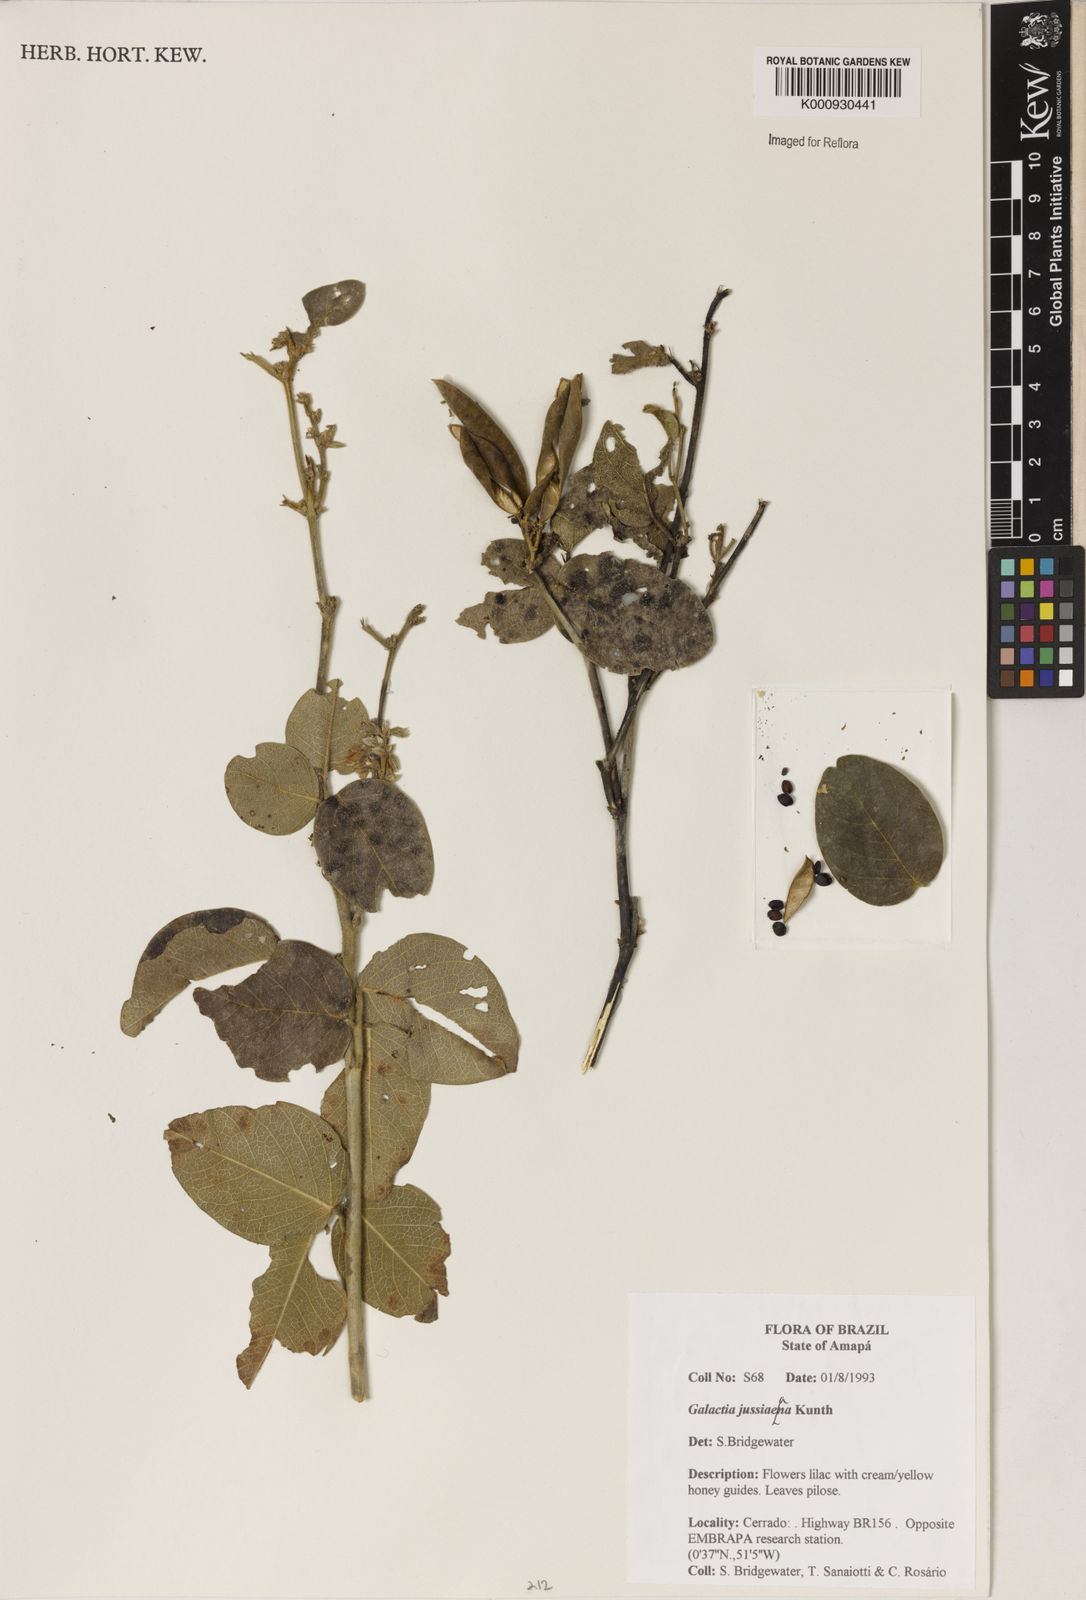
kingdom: Plantae
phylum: Tracheophyta
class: Magnoliopsida
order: Fabales
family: Fabaceae
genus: Galactia
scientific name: Galactia jussiaeana
